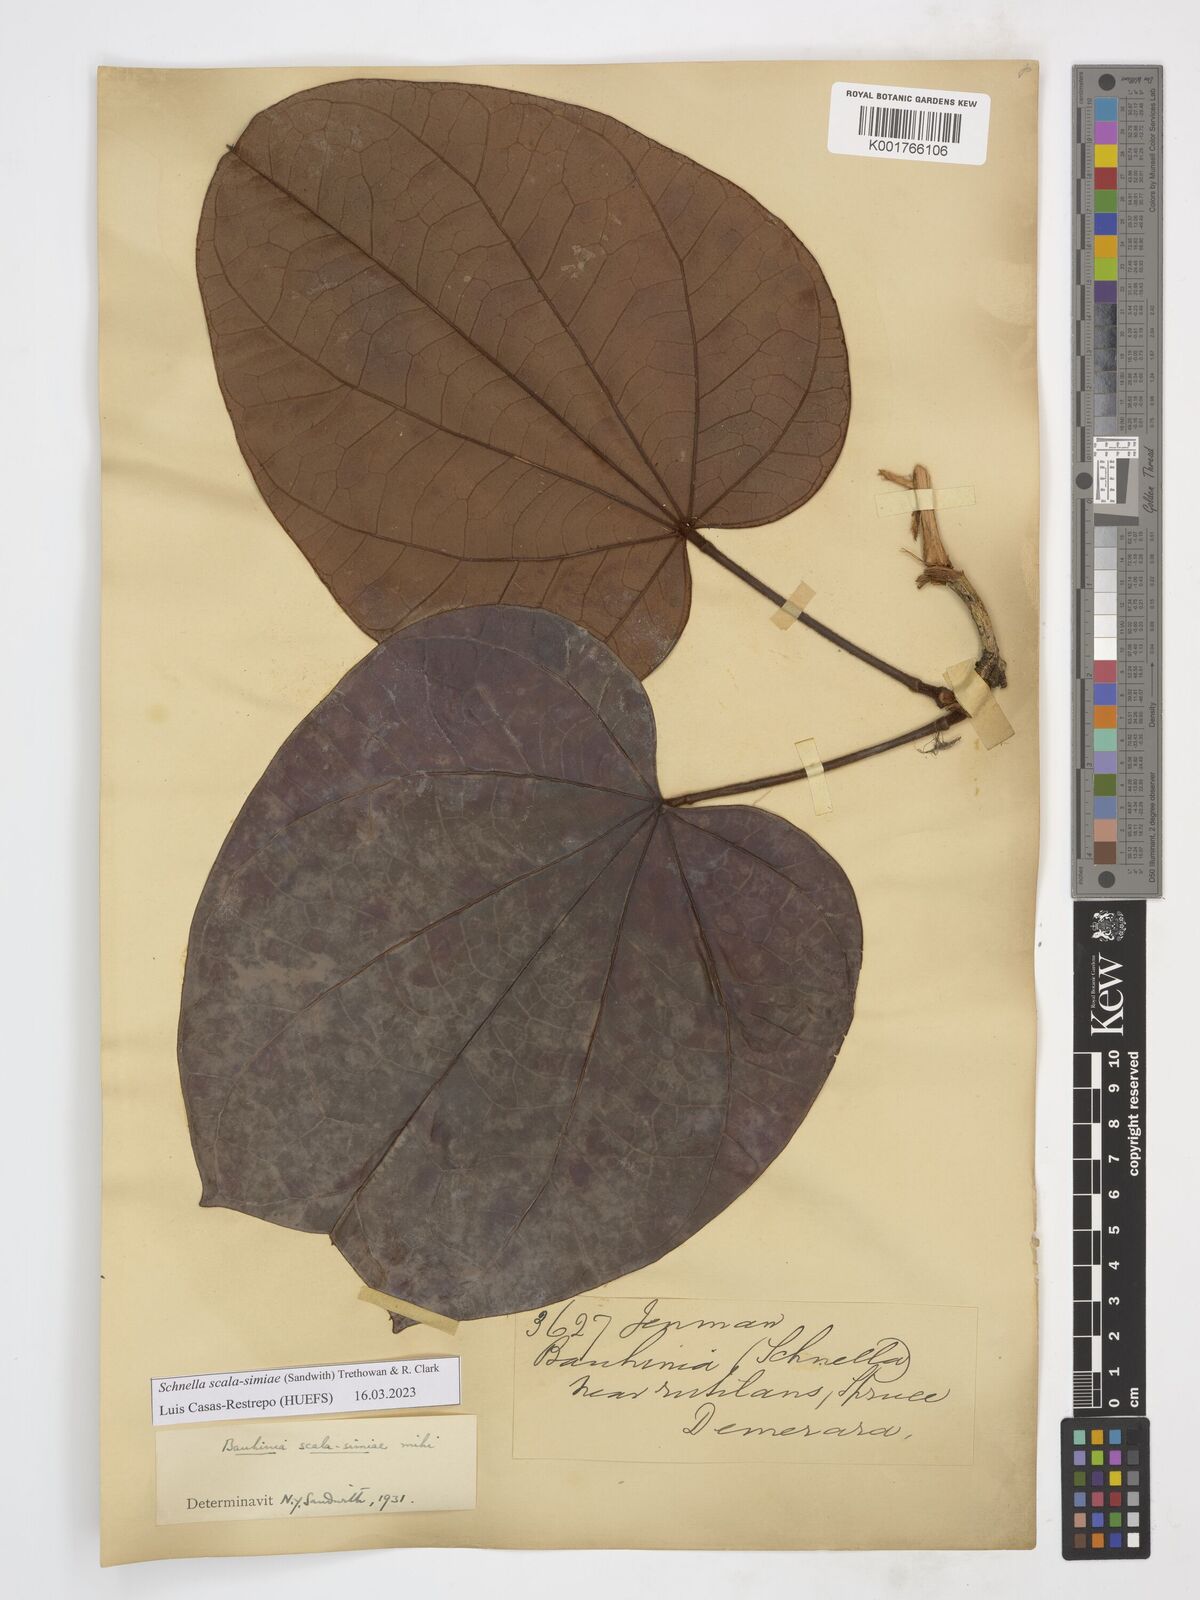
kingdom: Plantae
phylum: Tracheophyta
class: Magnoliopsida
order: Fabales
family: Fabaceae
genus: Schnella
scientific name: Schnella scala-simiae
